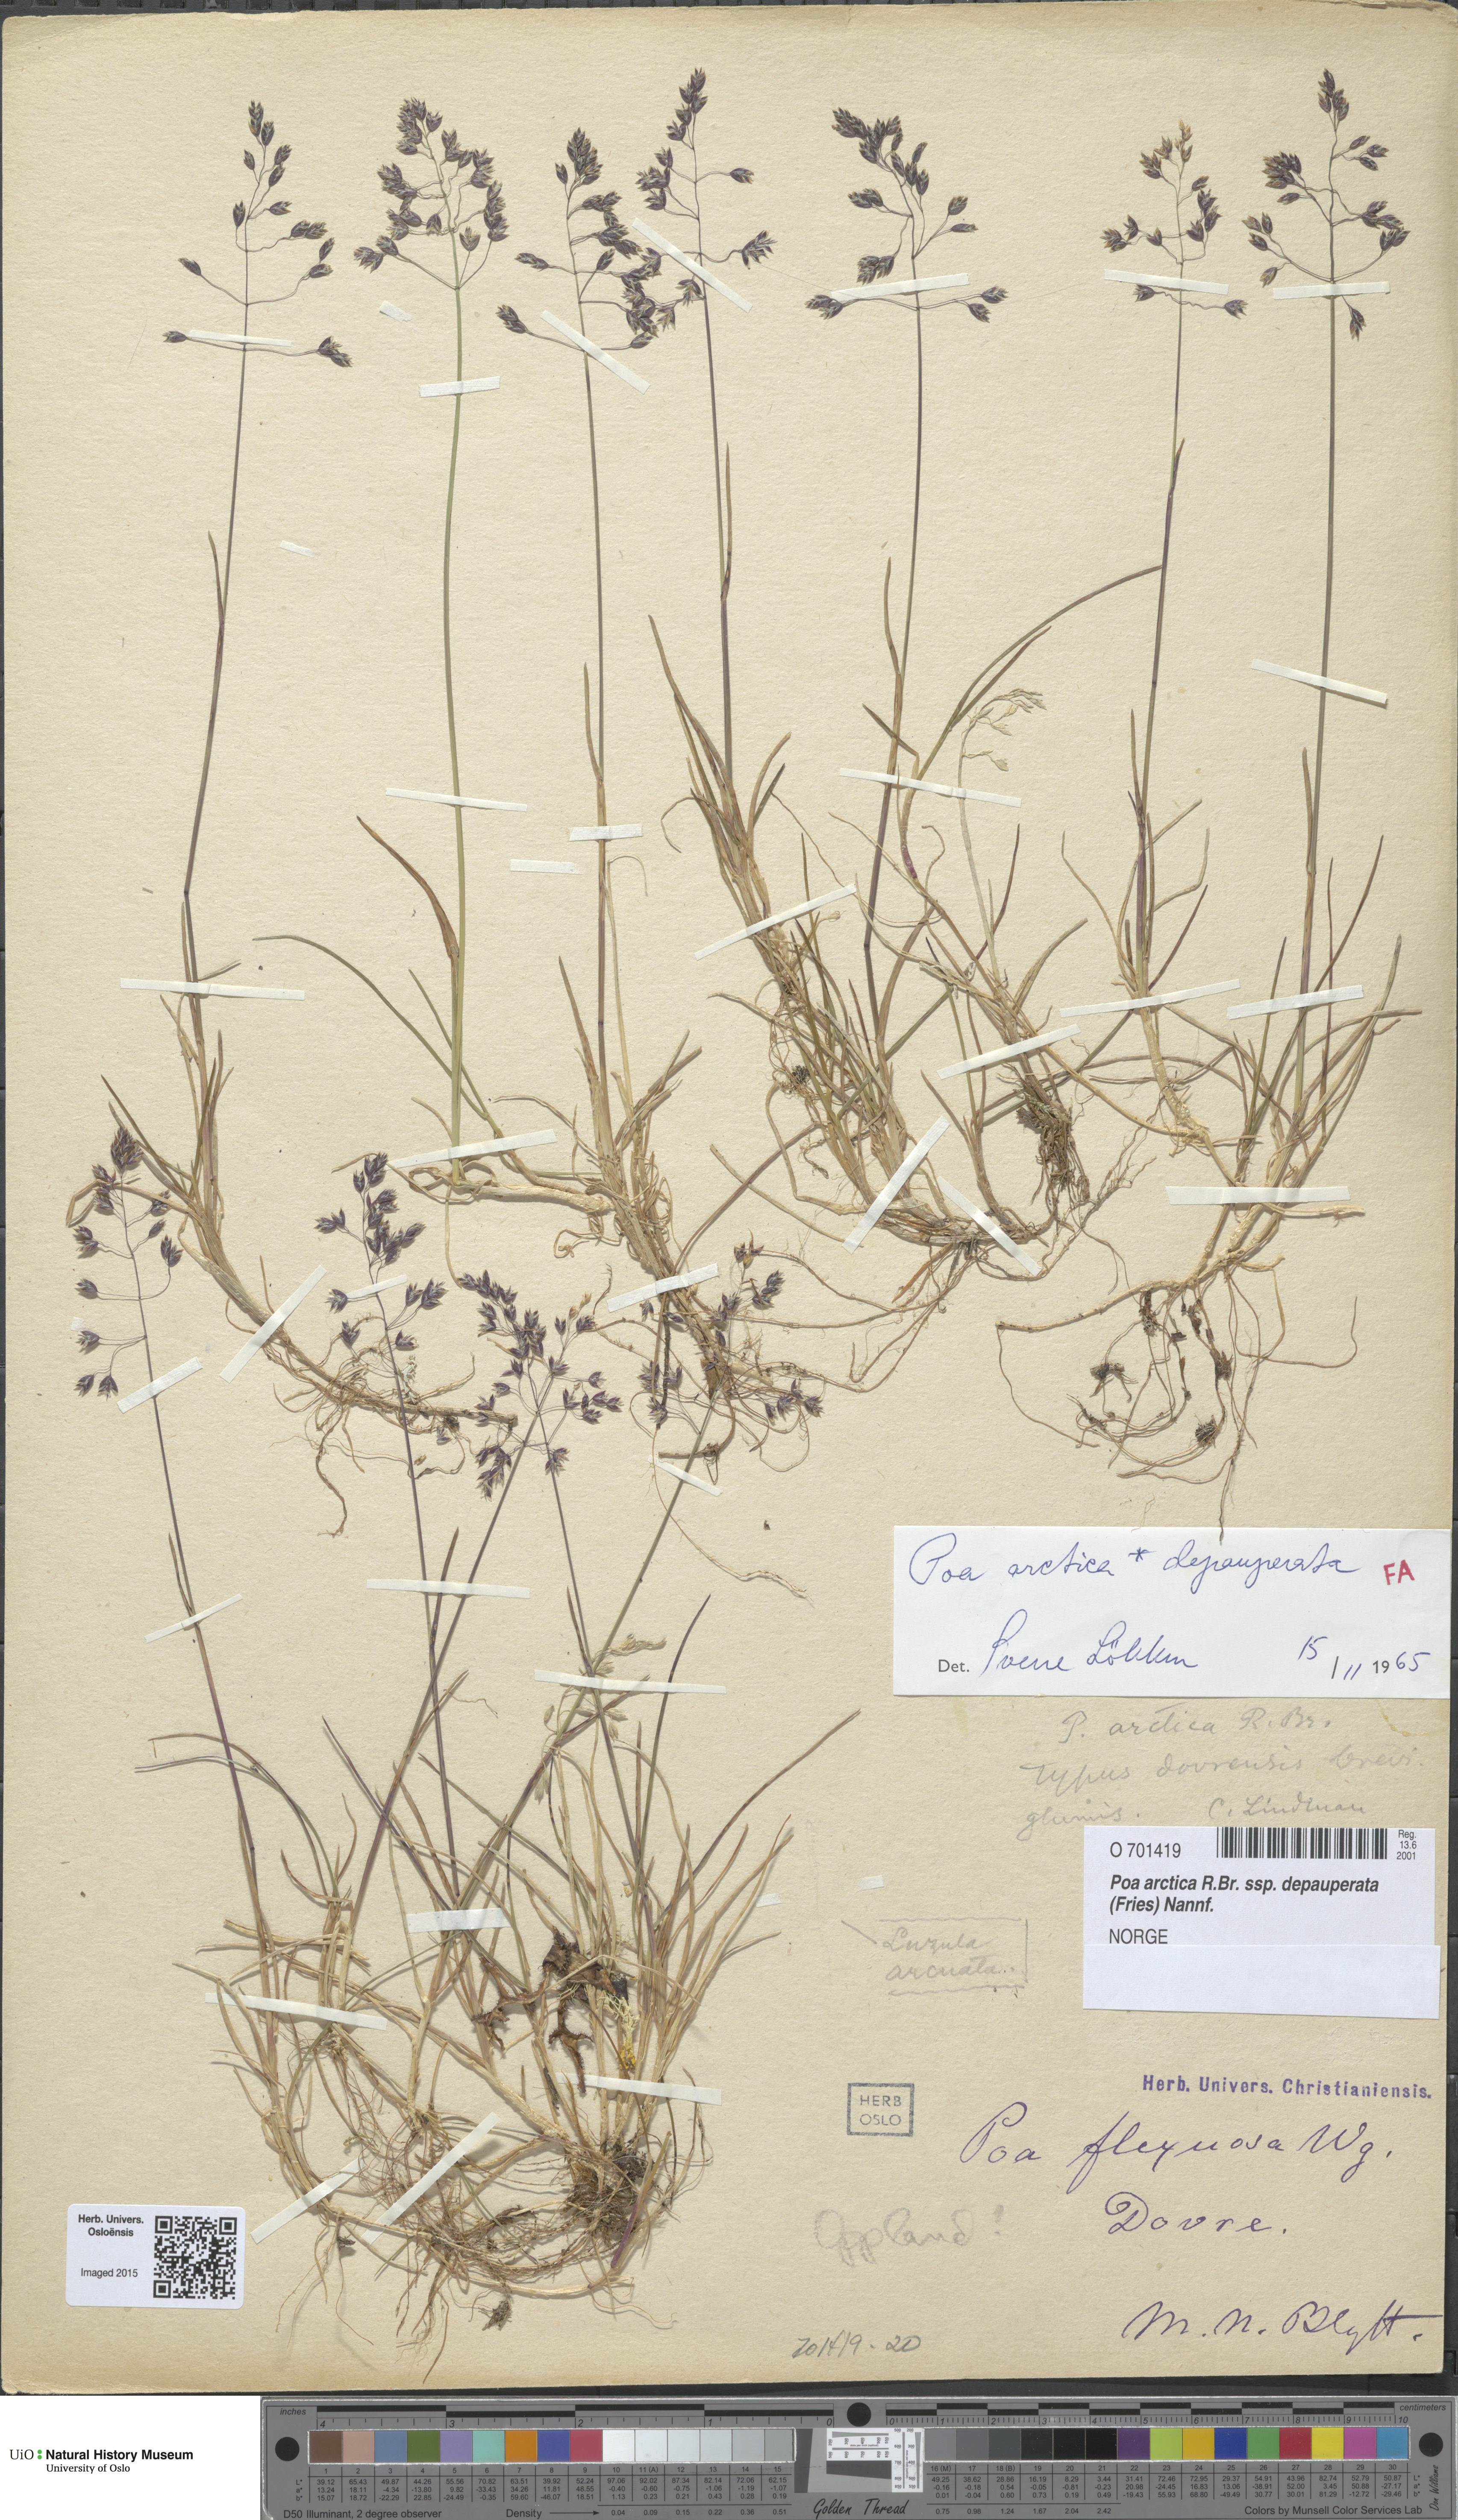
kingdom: Plantae
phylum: Tracheophyta
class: Liliopsida
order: Poales
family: Poaceae
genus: Poa
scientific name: Poa arctica
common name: Arctic bluegrass
